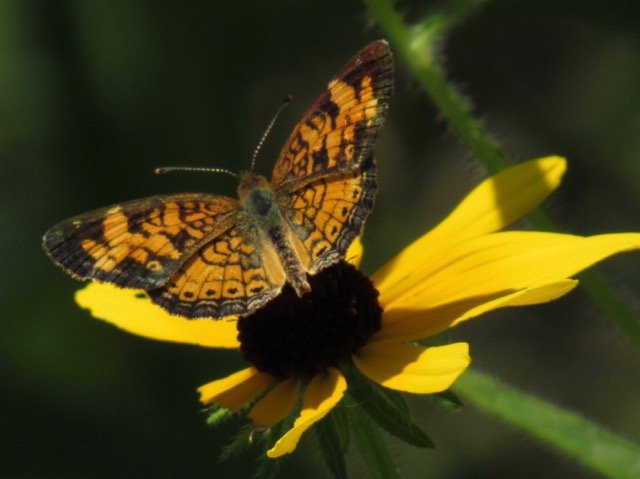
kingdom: Animalia
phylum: Arthropoda
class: Insecta
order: Lepidoptera
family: Nymphalidae
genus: Phyciodes
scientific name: Phyciodes tharos
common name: Pearl Crescent
